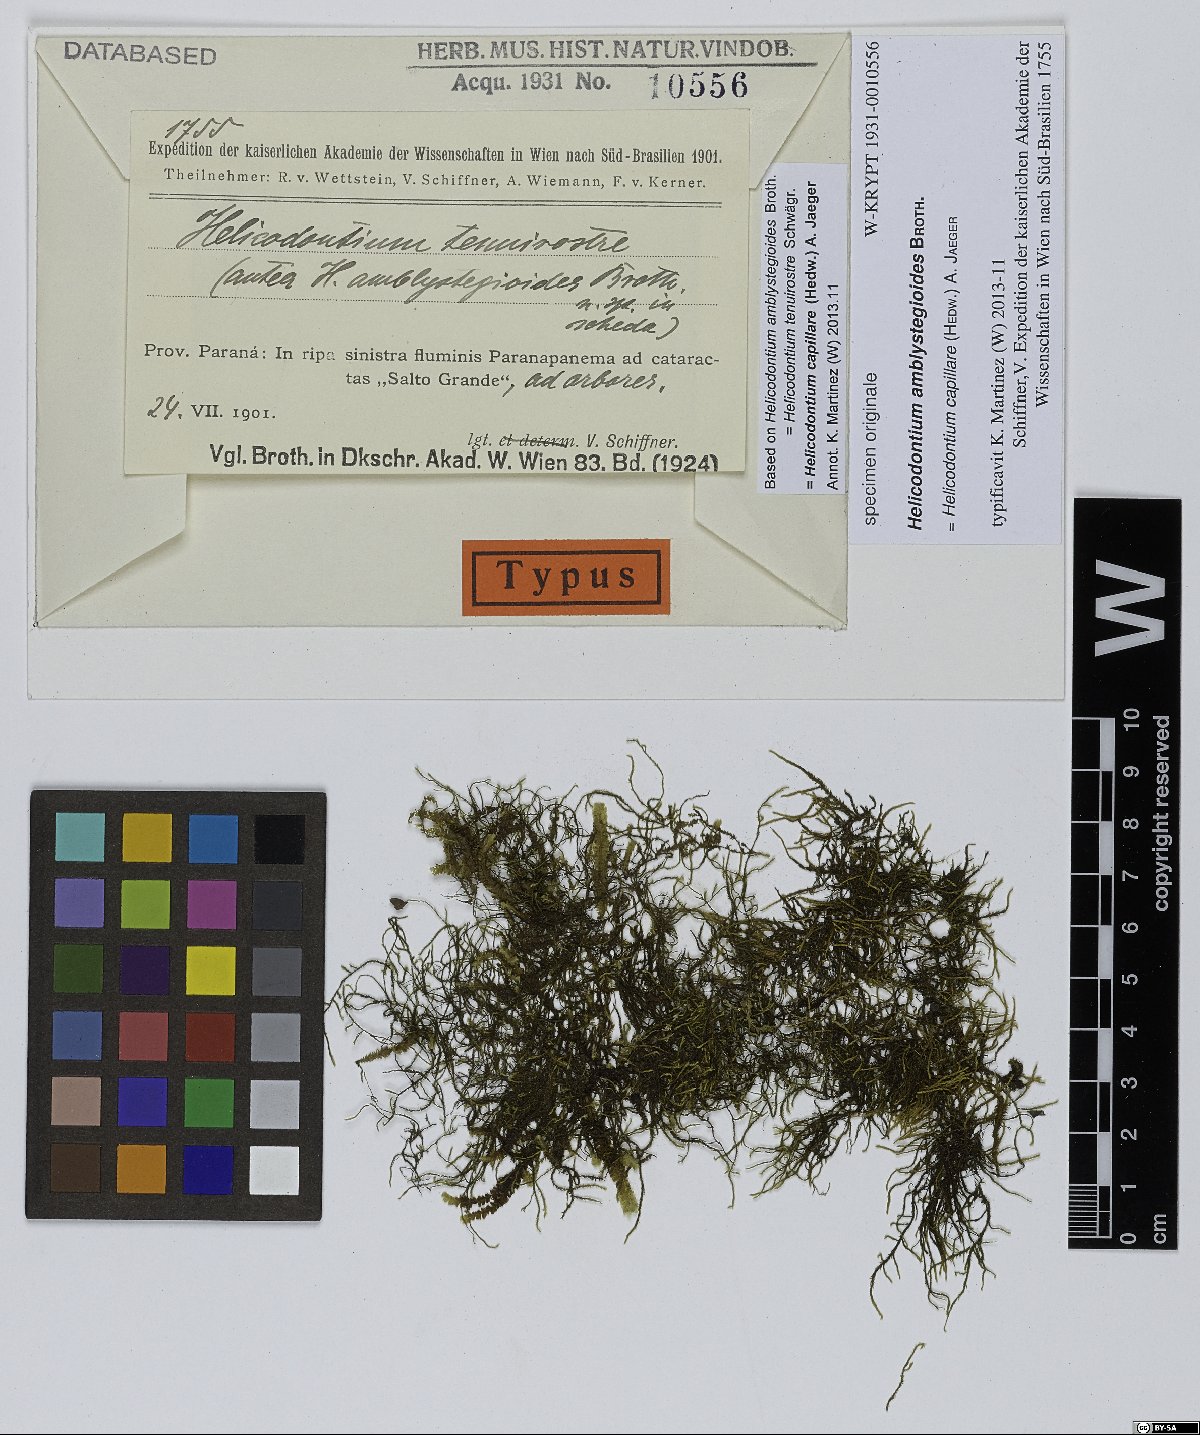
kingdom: Plantae
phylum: Bryophyta
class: Bryopsida
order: Hypnales
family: Myriniaceae
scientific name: Myriniaceae
